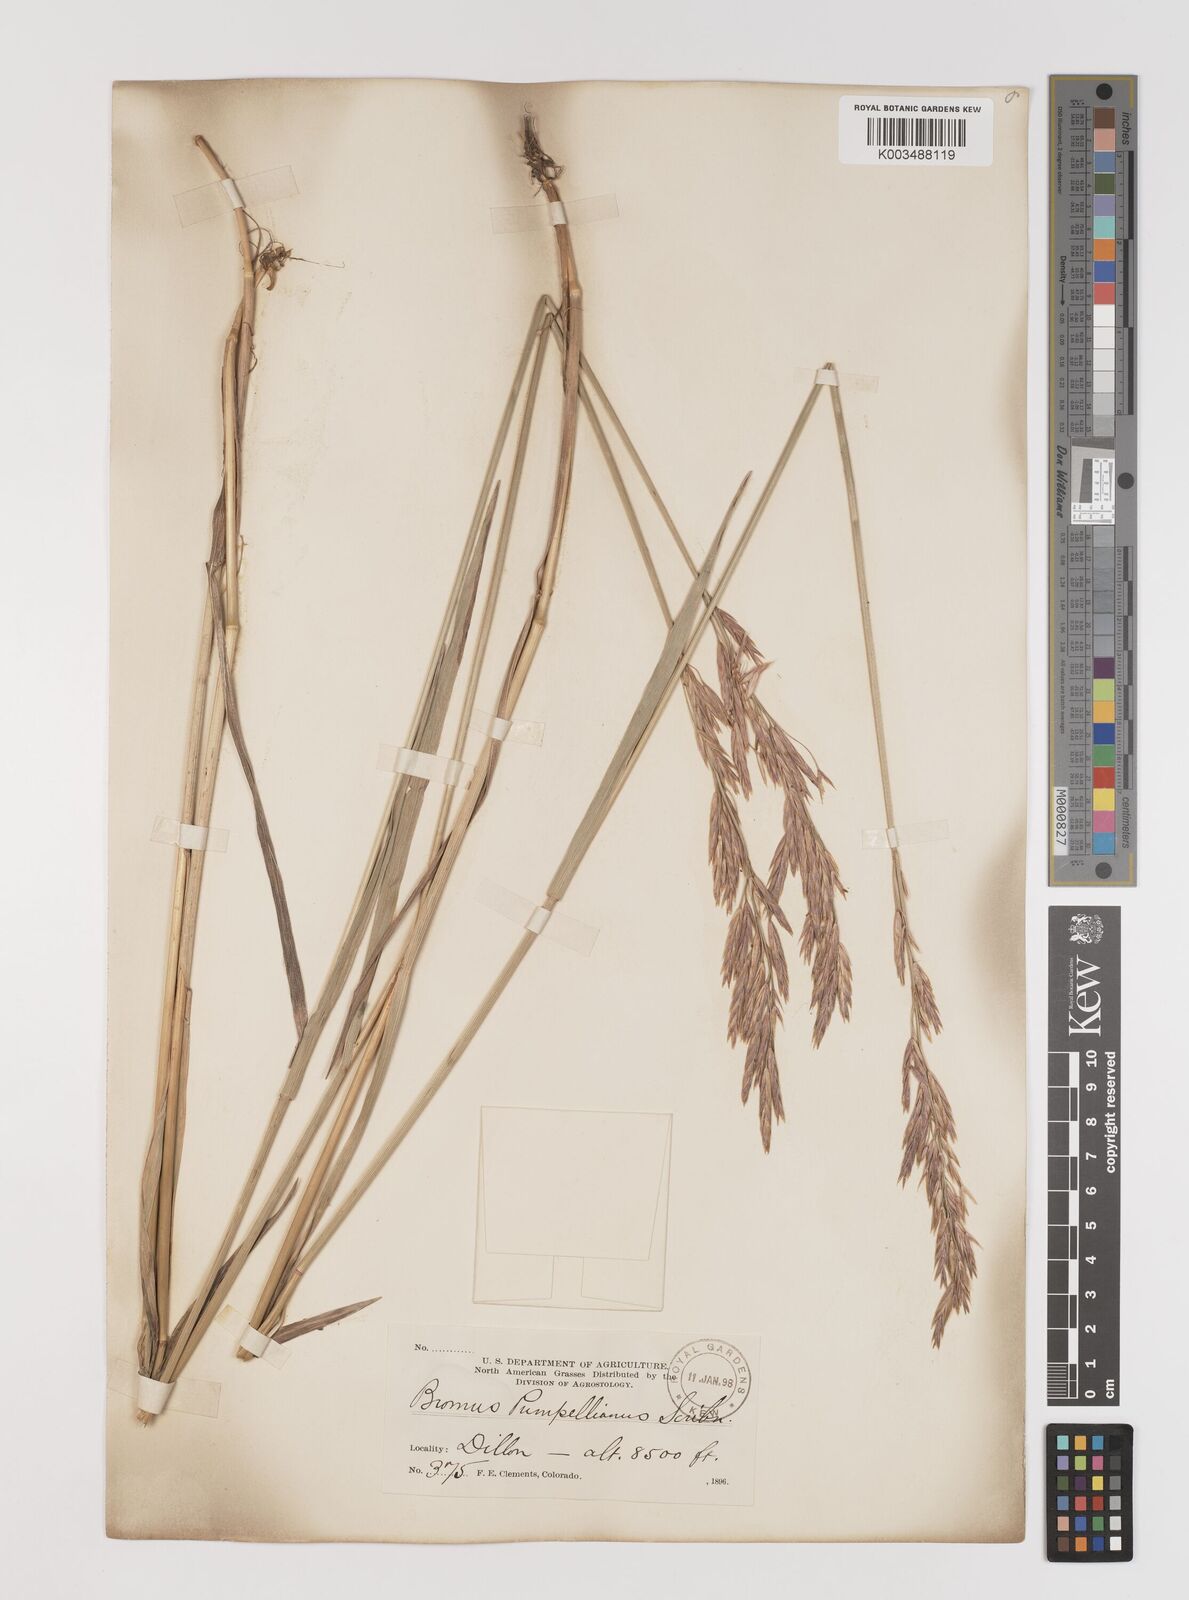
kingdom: Plantae
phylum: Tracheophyta
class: Liliopsida
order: Poales
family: Poaceae
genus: Bromus
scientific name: Bromus pumpellianus
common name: Pumpelly's brome
